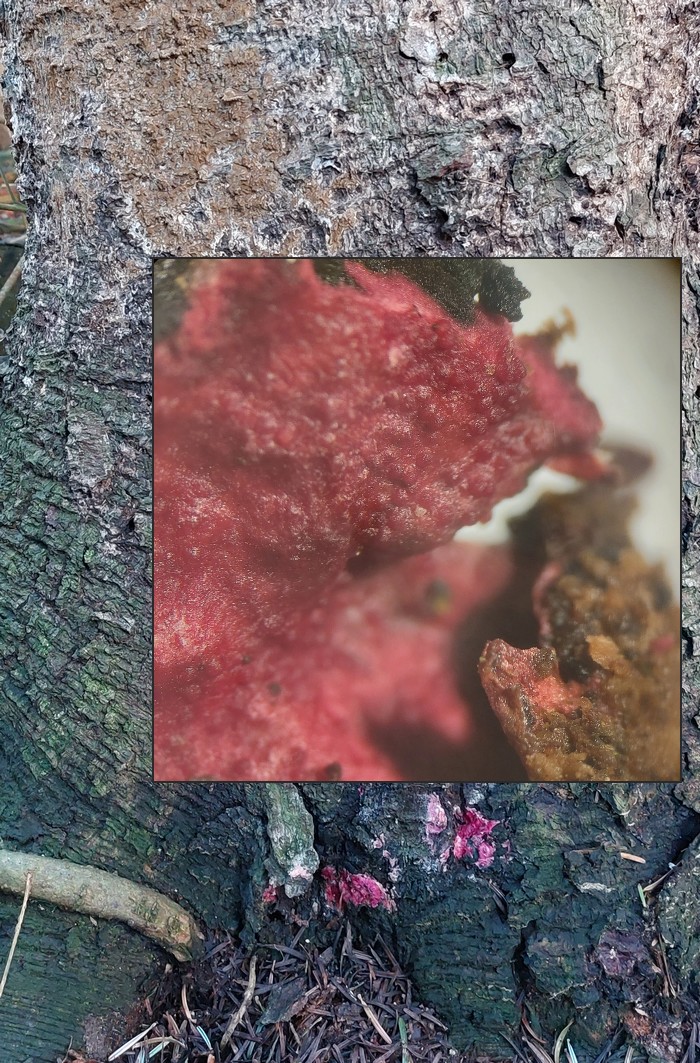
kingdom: Fungi
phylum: Ascomycota
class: Sordariomycetes
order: Hypocreales
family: Hypocreaceae
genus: Hypomyces
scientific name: Hypomyces rosellus
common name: rosa snylteskorpe
